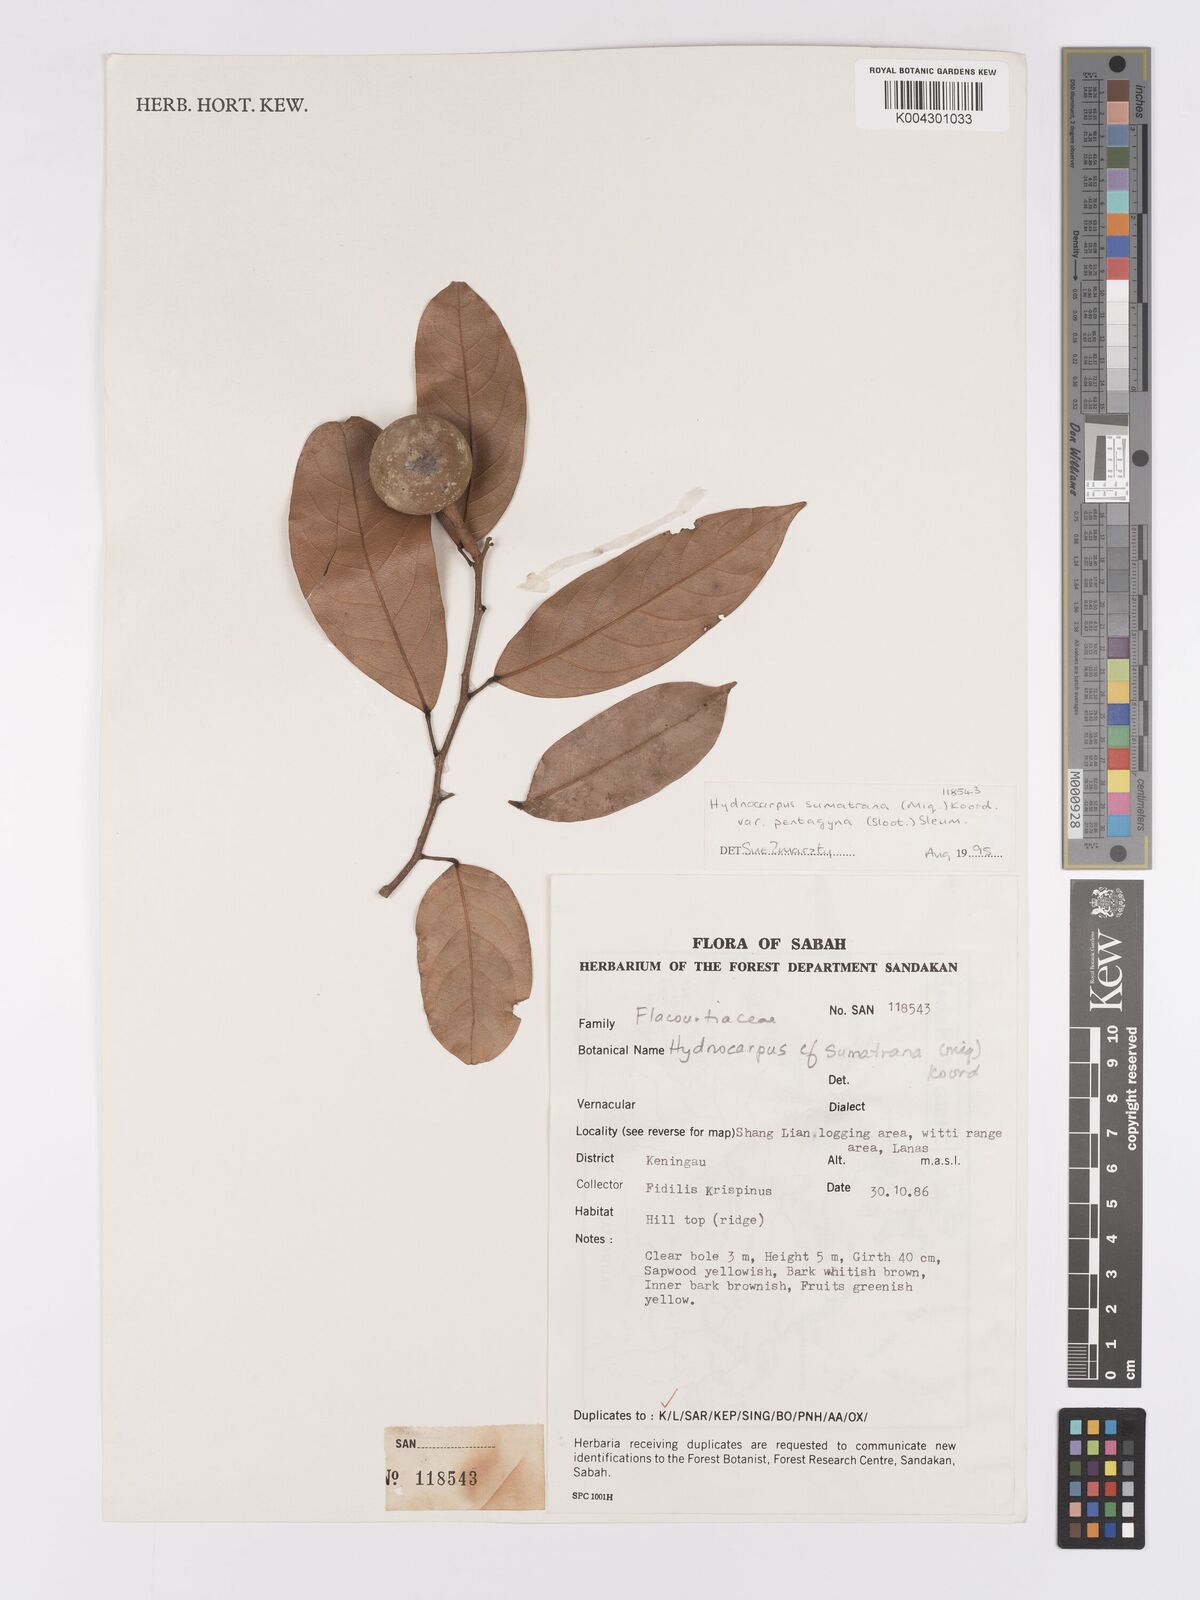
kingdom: Plantae
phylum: Tracheophyta
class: Magnoliopsida
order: Malpighiales
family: Achariaceae
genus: Hydnocarpus
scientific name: Hydnocarpus
